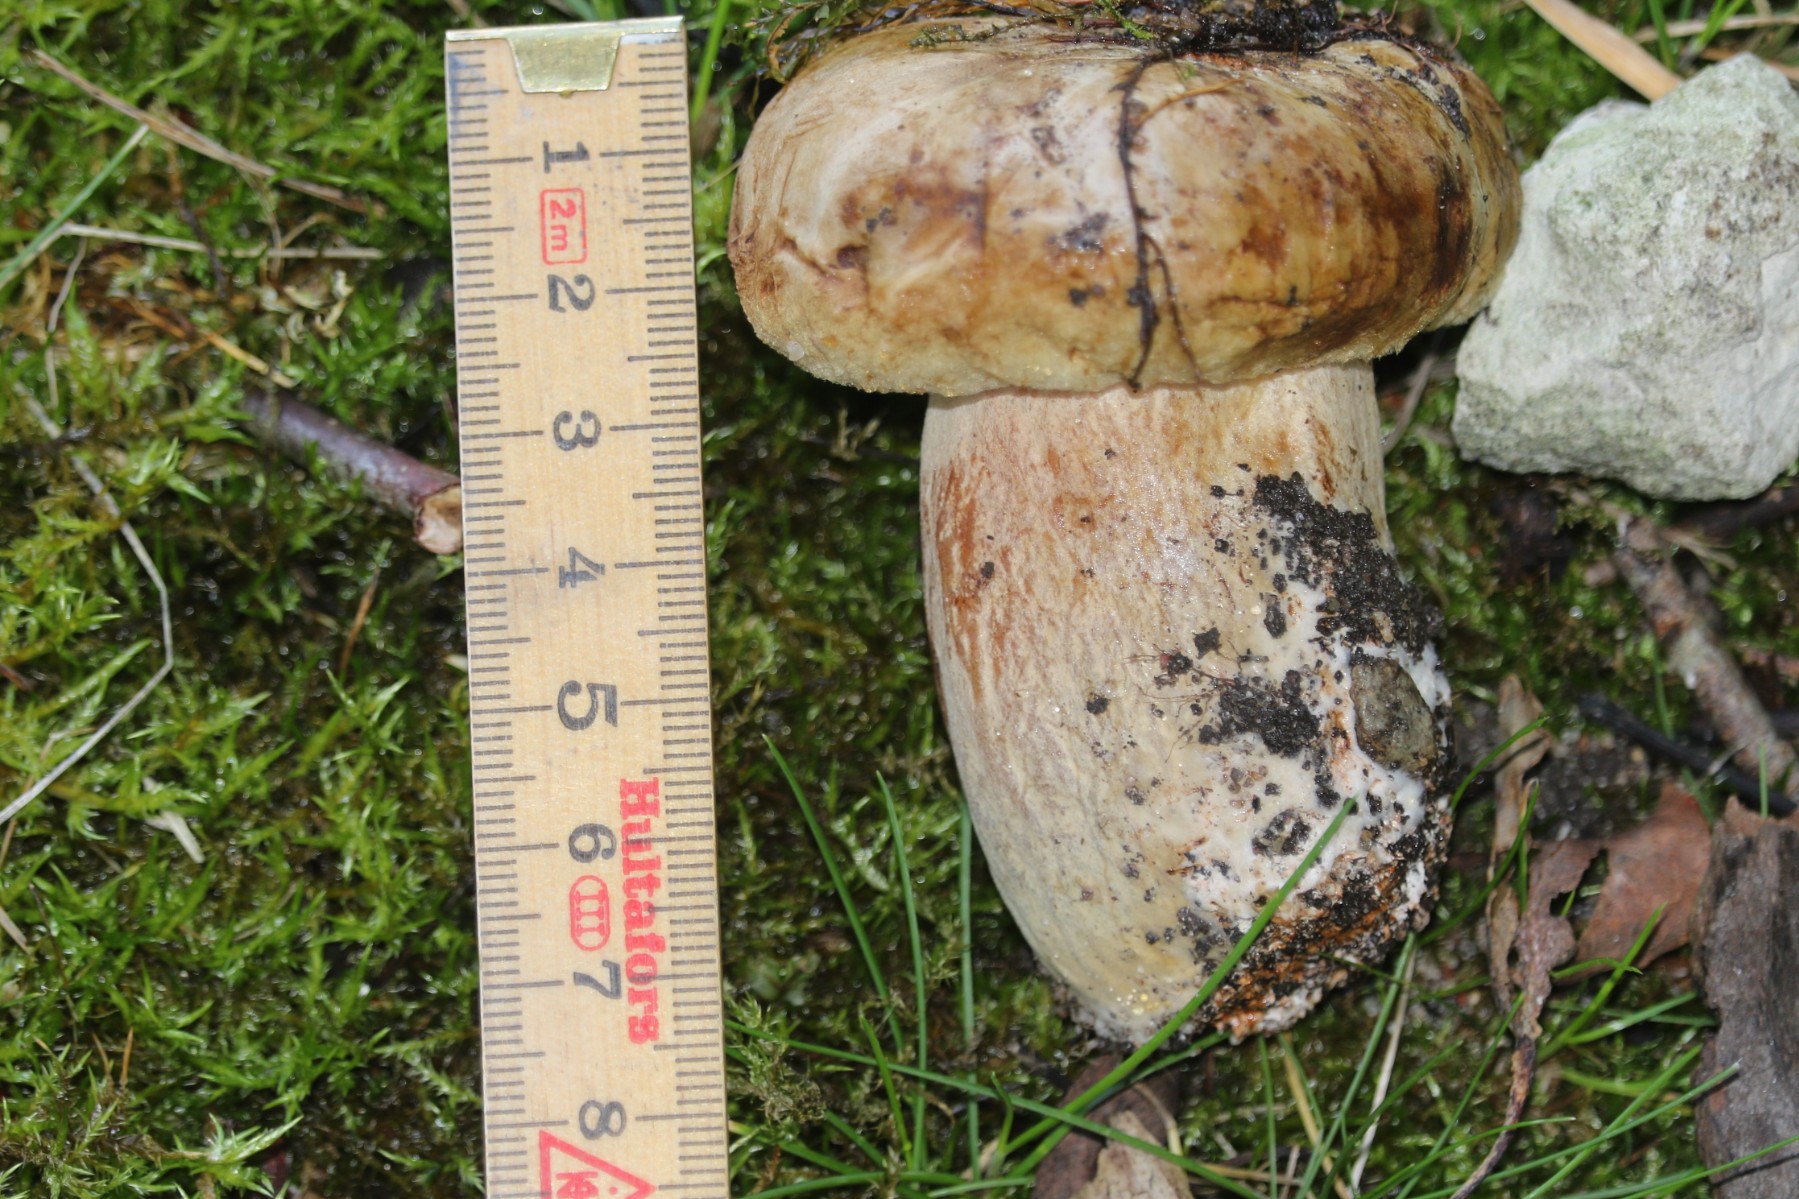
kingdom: Fungi
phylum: Basidiomycota
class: Agaricomycetes
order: Boletales
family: Paxillaceae
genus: Paxillus
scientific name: Paxillus
